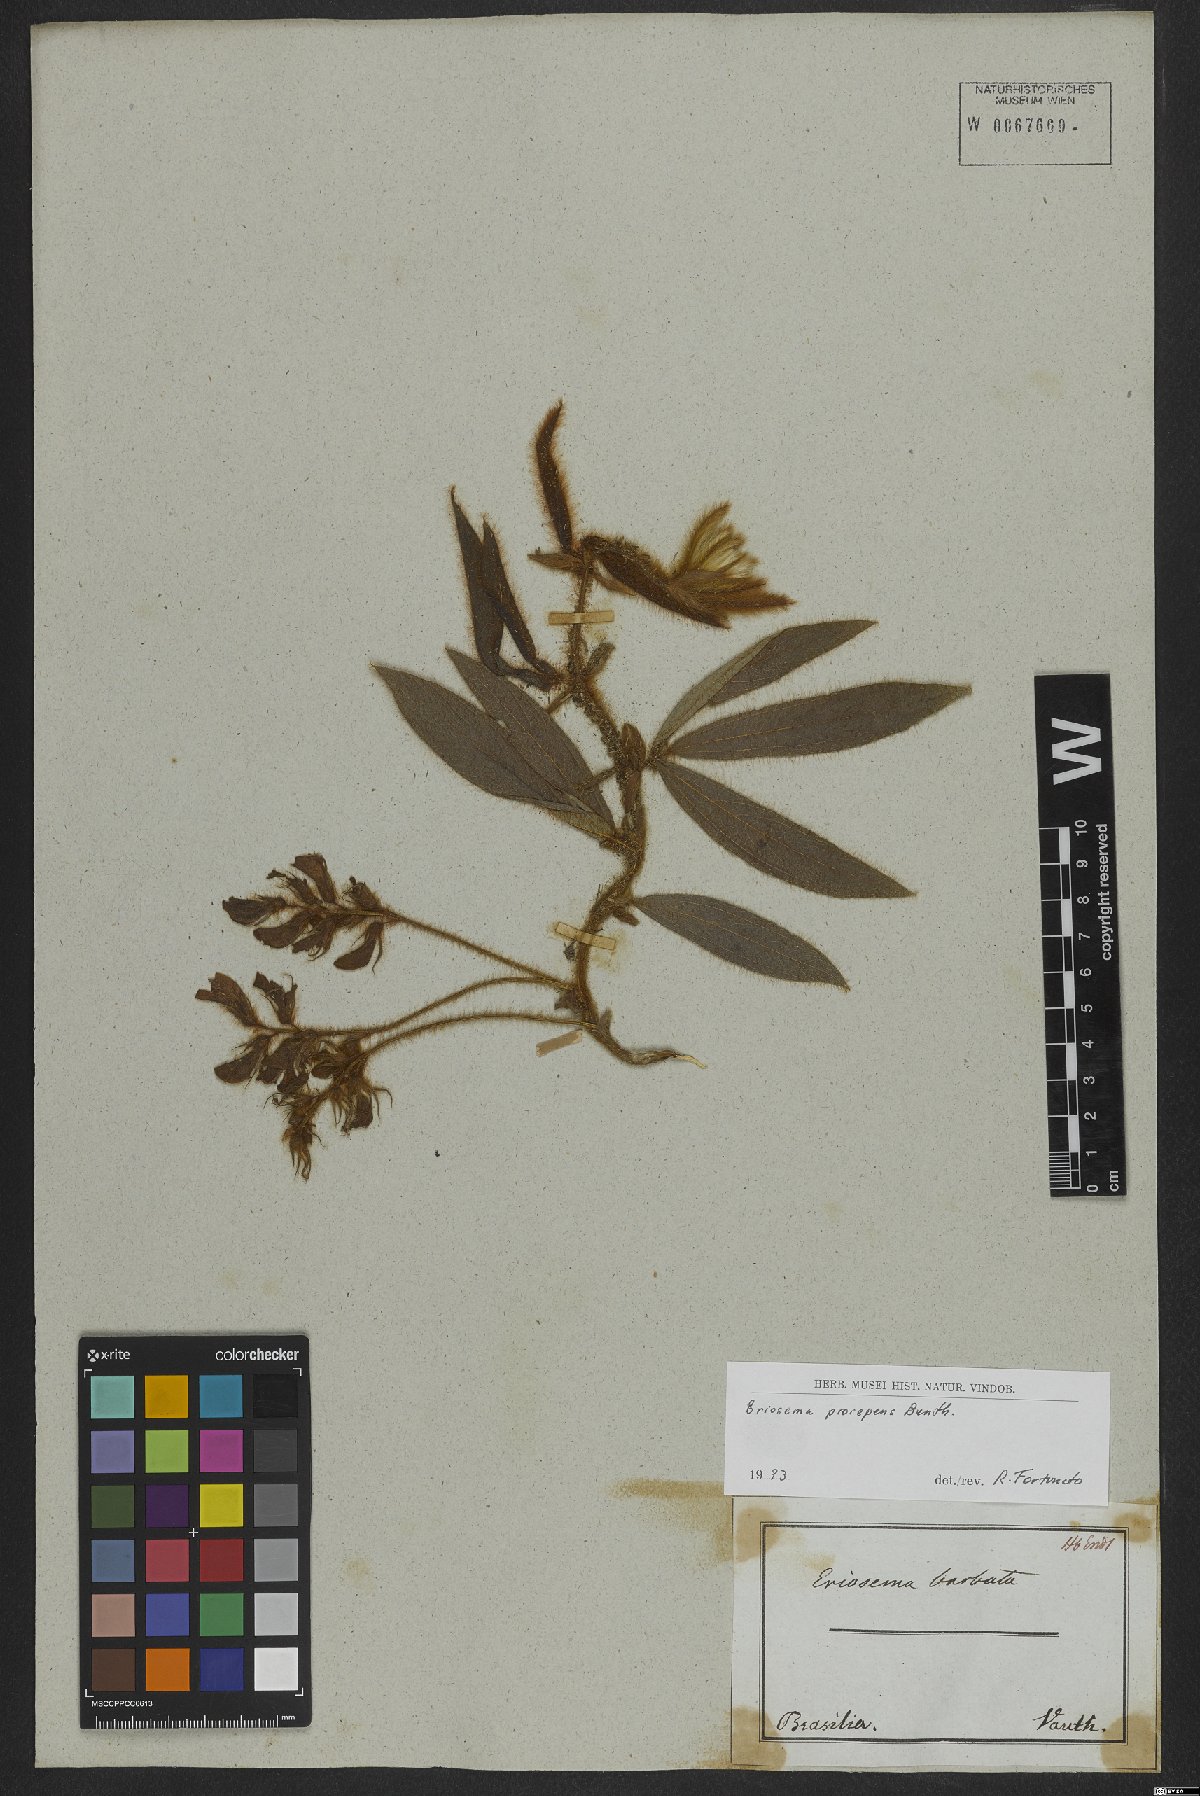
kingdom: Plantae
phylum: Tracheophyta
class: Magnoliopsida
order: Fabales
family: Fabaceae
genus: Eriosema
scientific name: Eriosema prorepens
